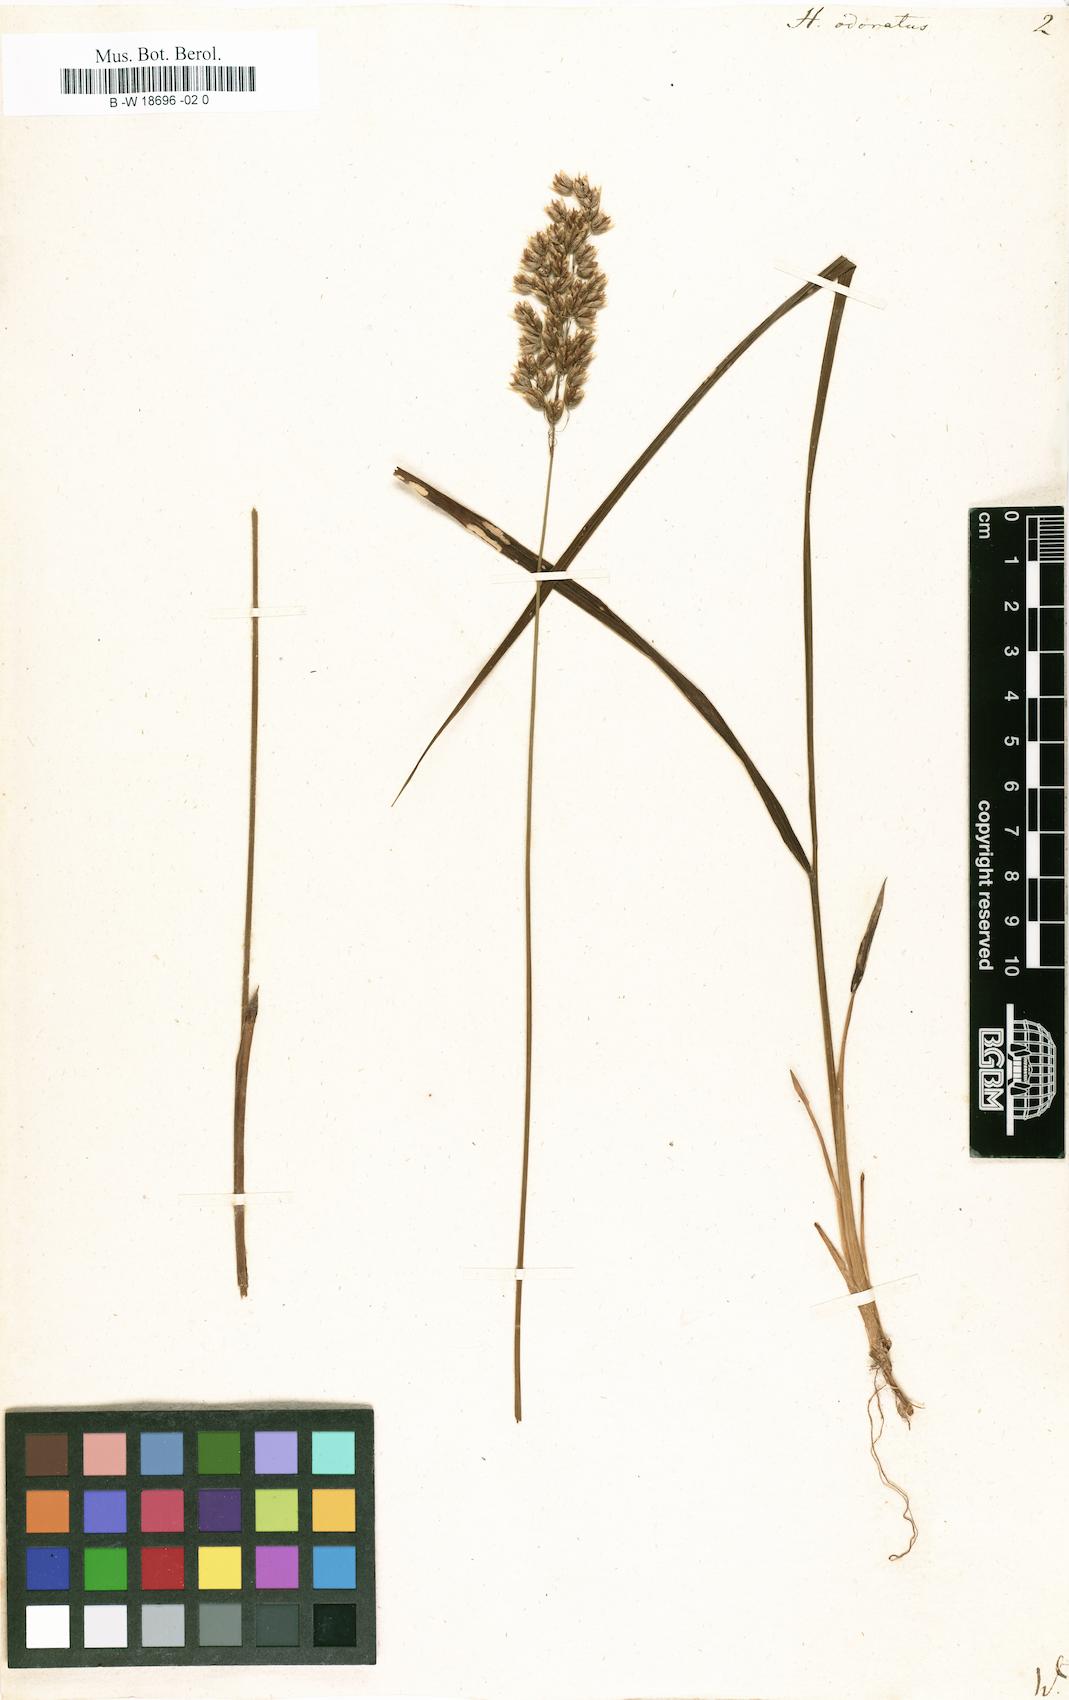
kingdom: Plantae
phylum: Tracheophyta
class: Liliopsida
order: Poales
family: Poaceae
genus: Anthoxanthum
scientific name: Anthoxanthum nitens
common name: Holy grass
